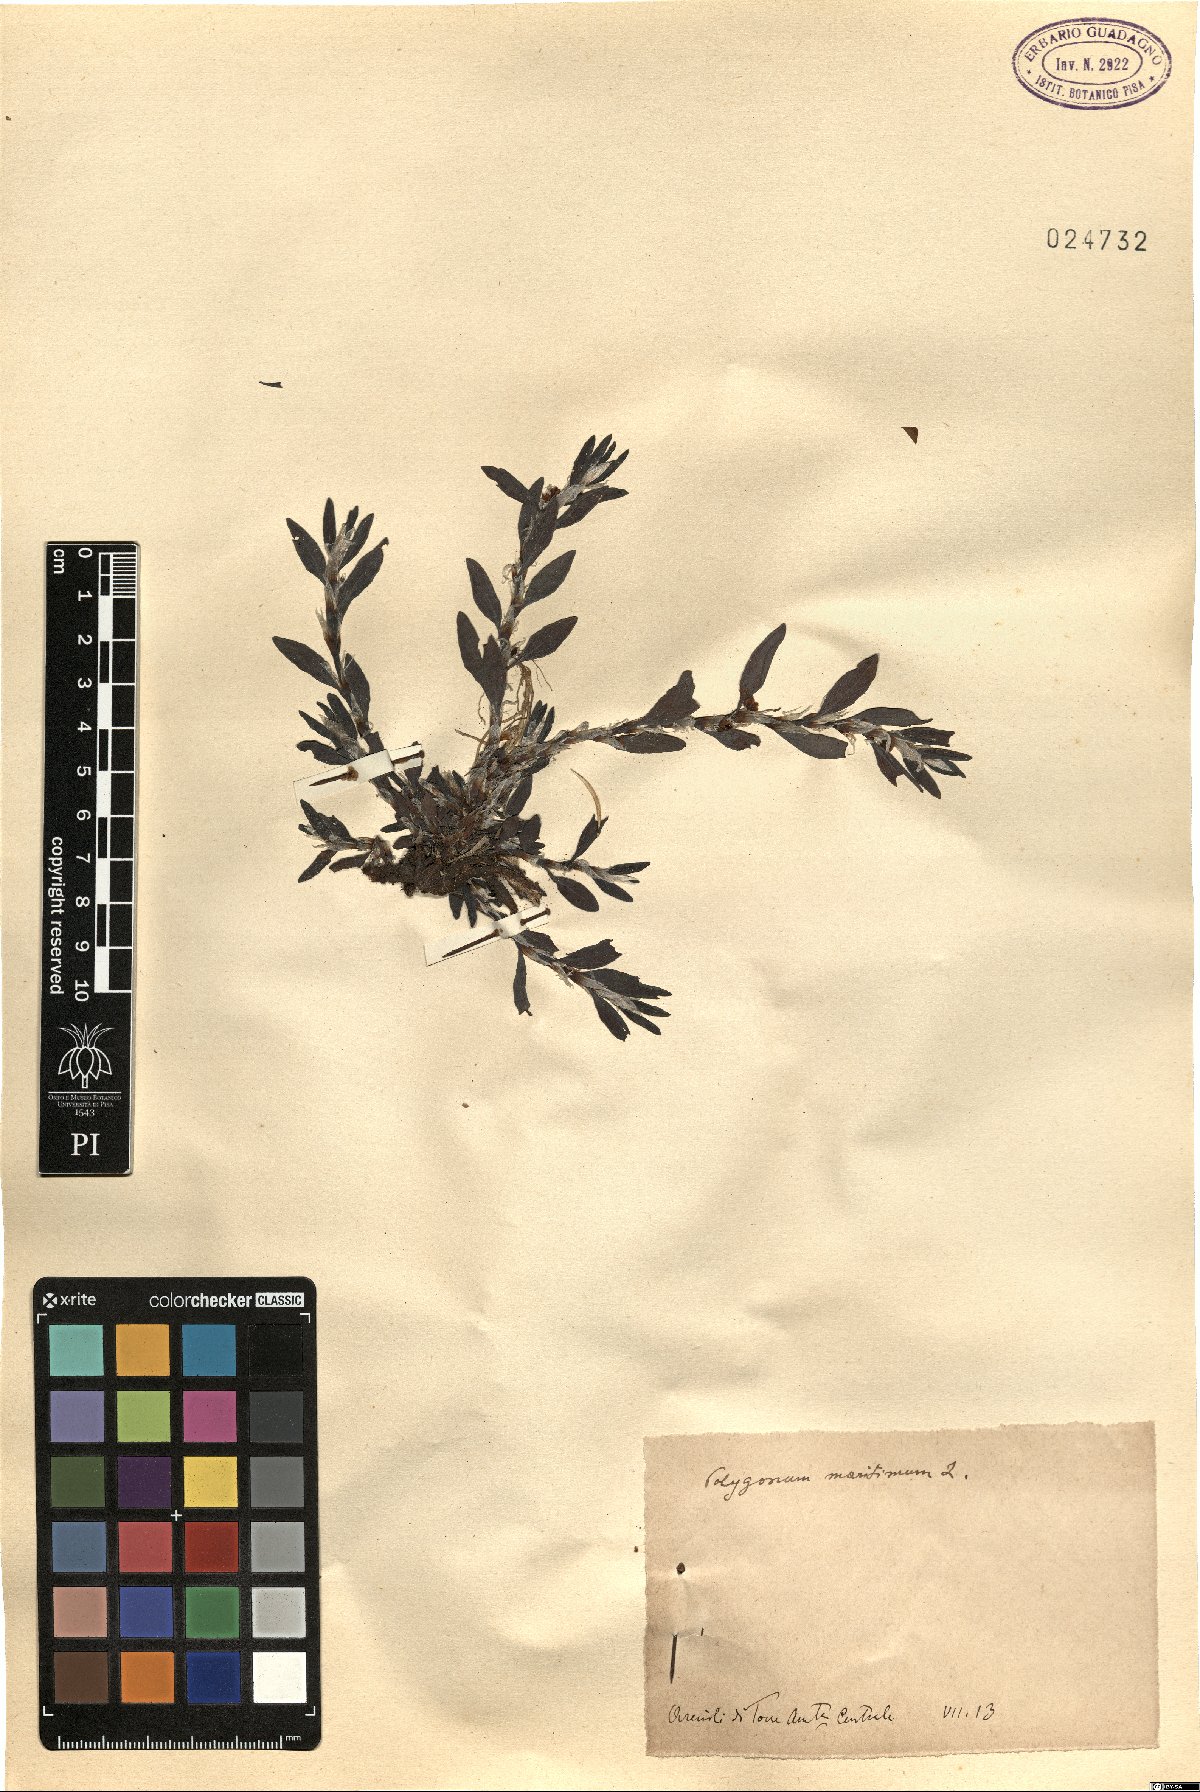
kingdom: Plantae
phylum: Tracheophyta
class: Magnoliopsida
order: Caryophyllales
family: Polygonaceae
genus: Polygonum
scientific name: Polygonum maritimum
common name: Sea knotgrass
